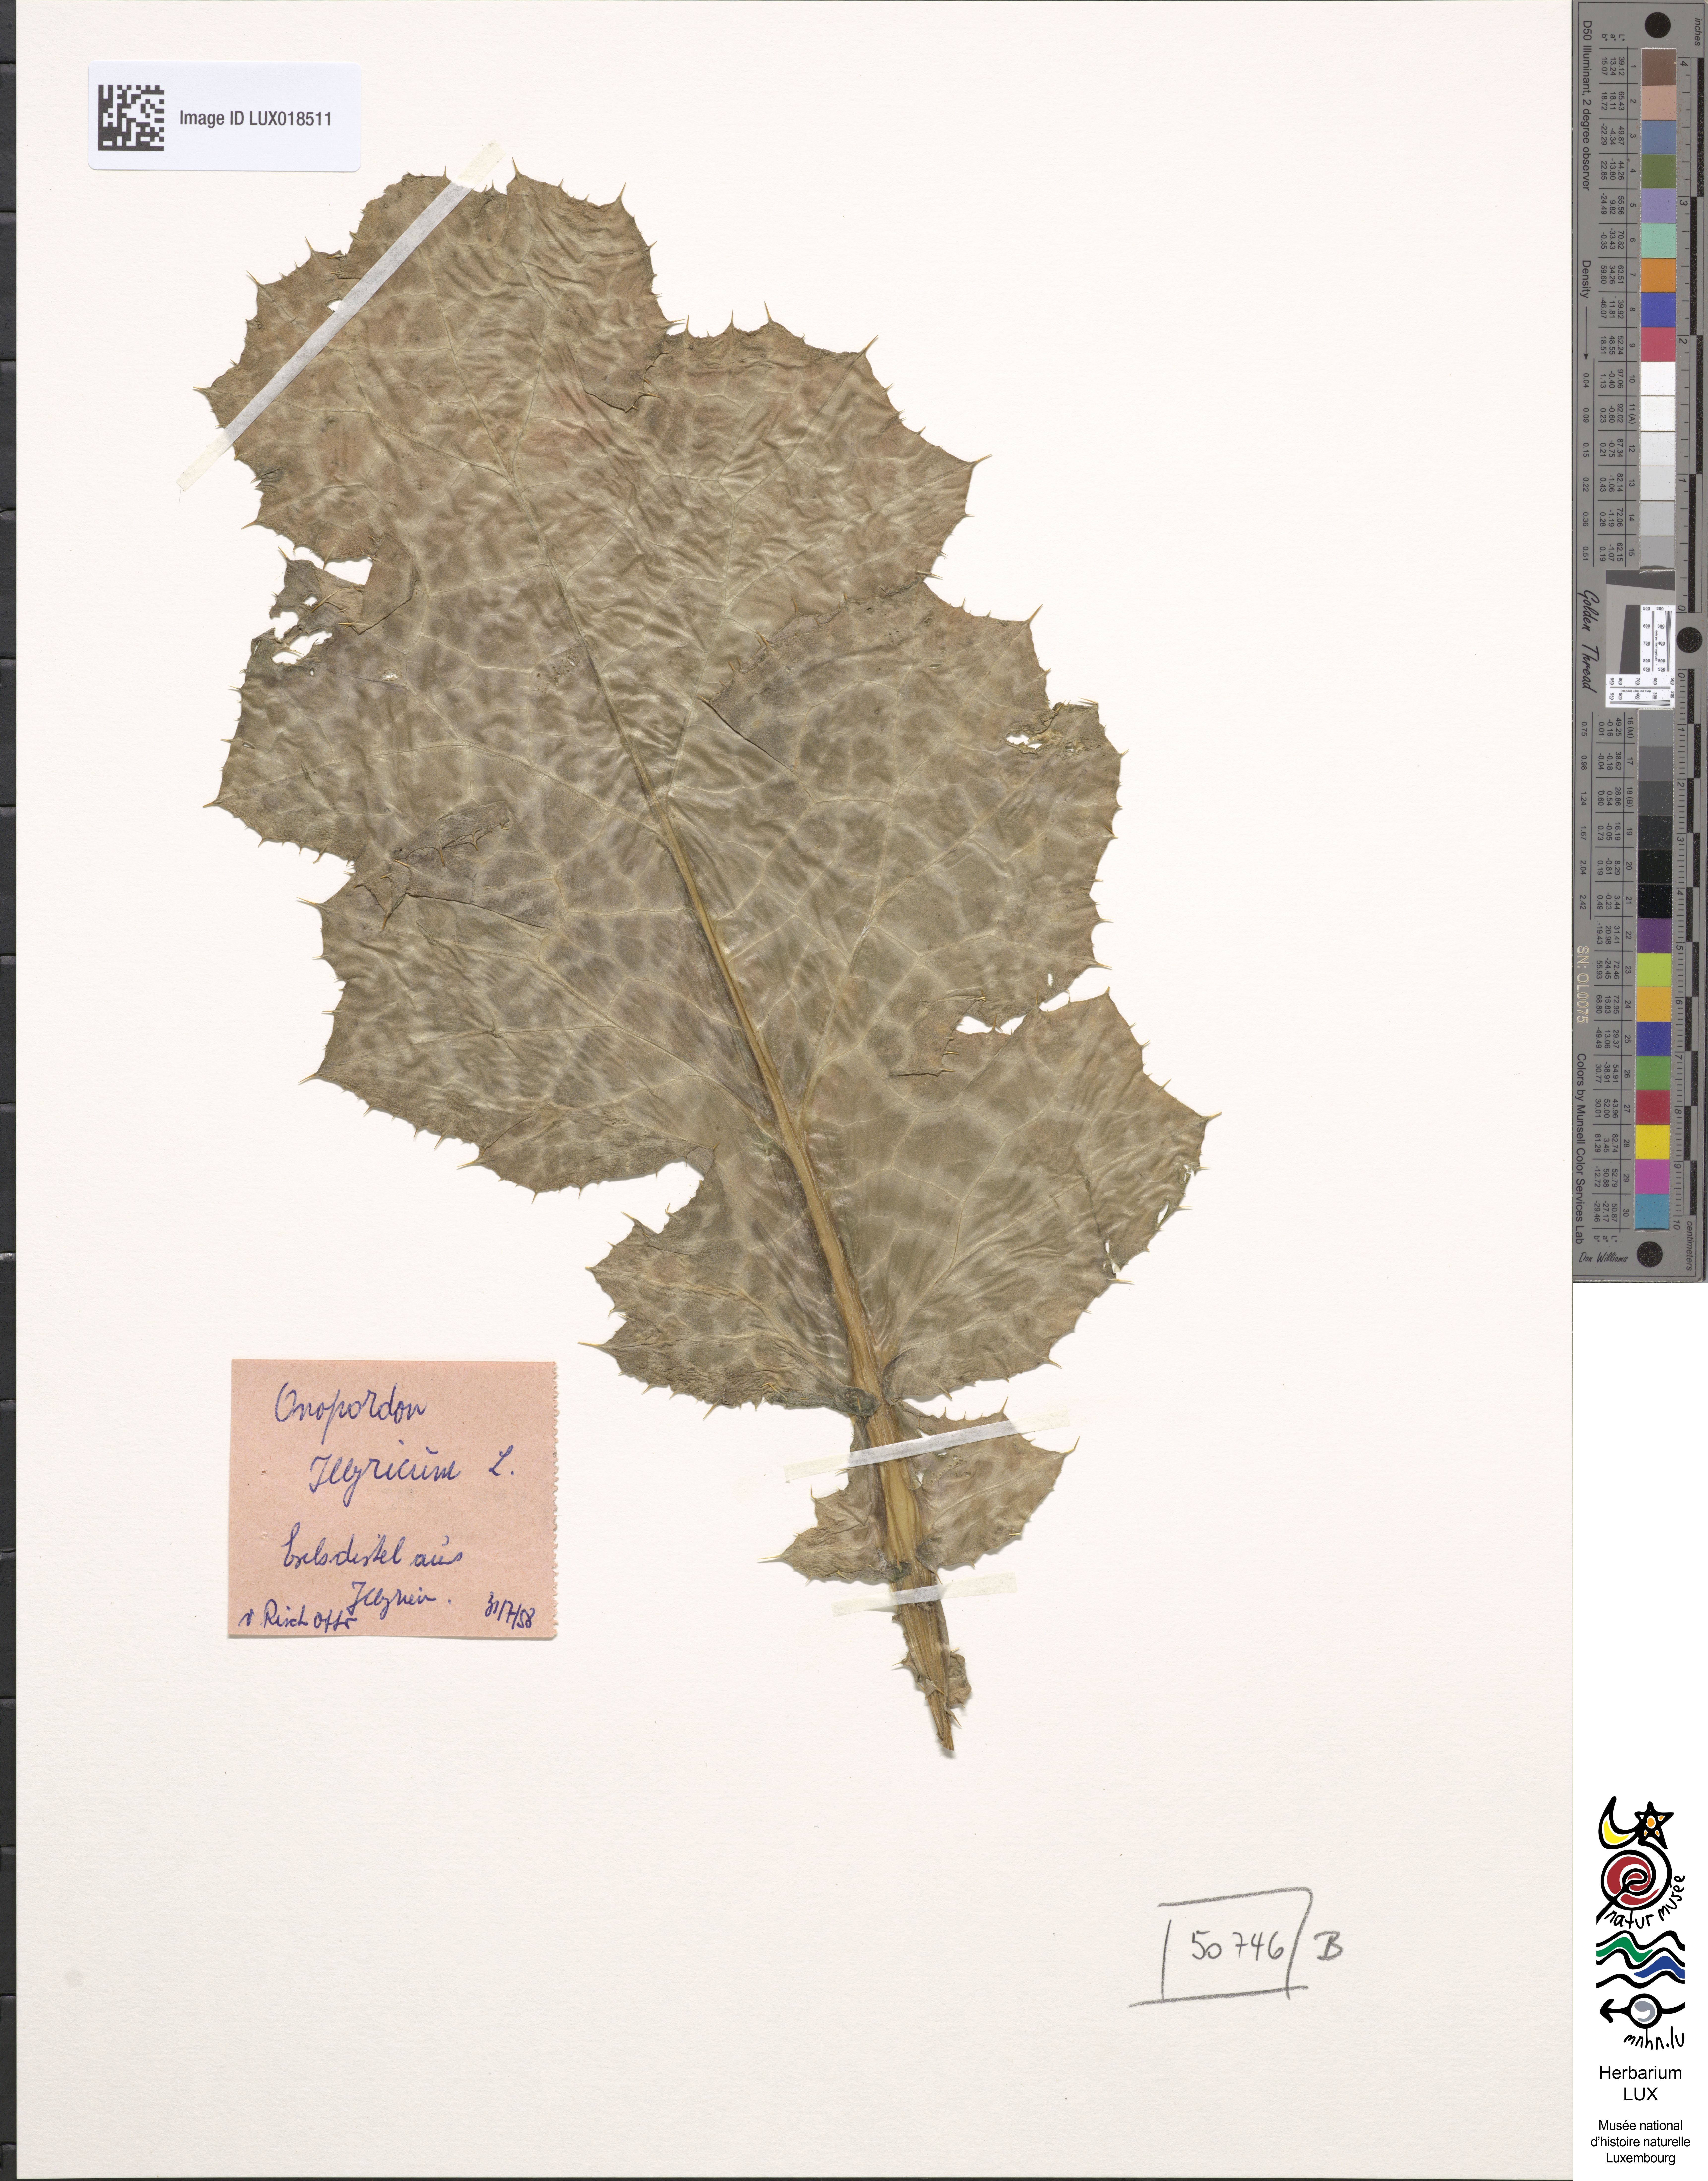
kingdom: Plantae
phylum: Tracheophyta
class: Magnoliopsida
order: Asterales
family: Asteraceae
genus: Onopordum
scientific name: Onopordum acanthium
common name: Scotch thistle
